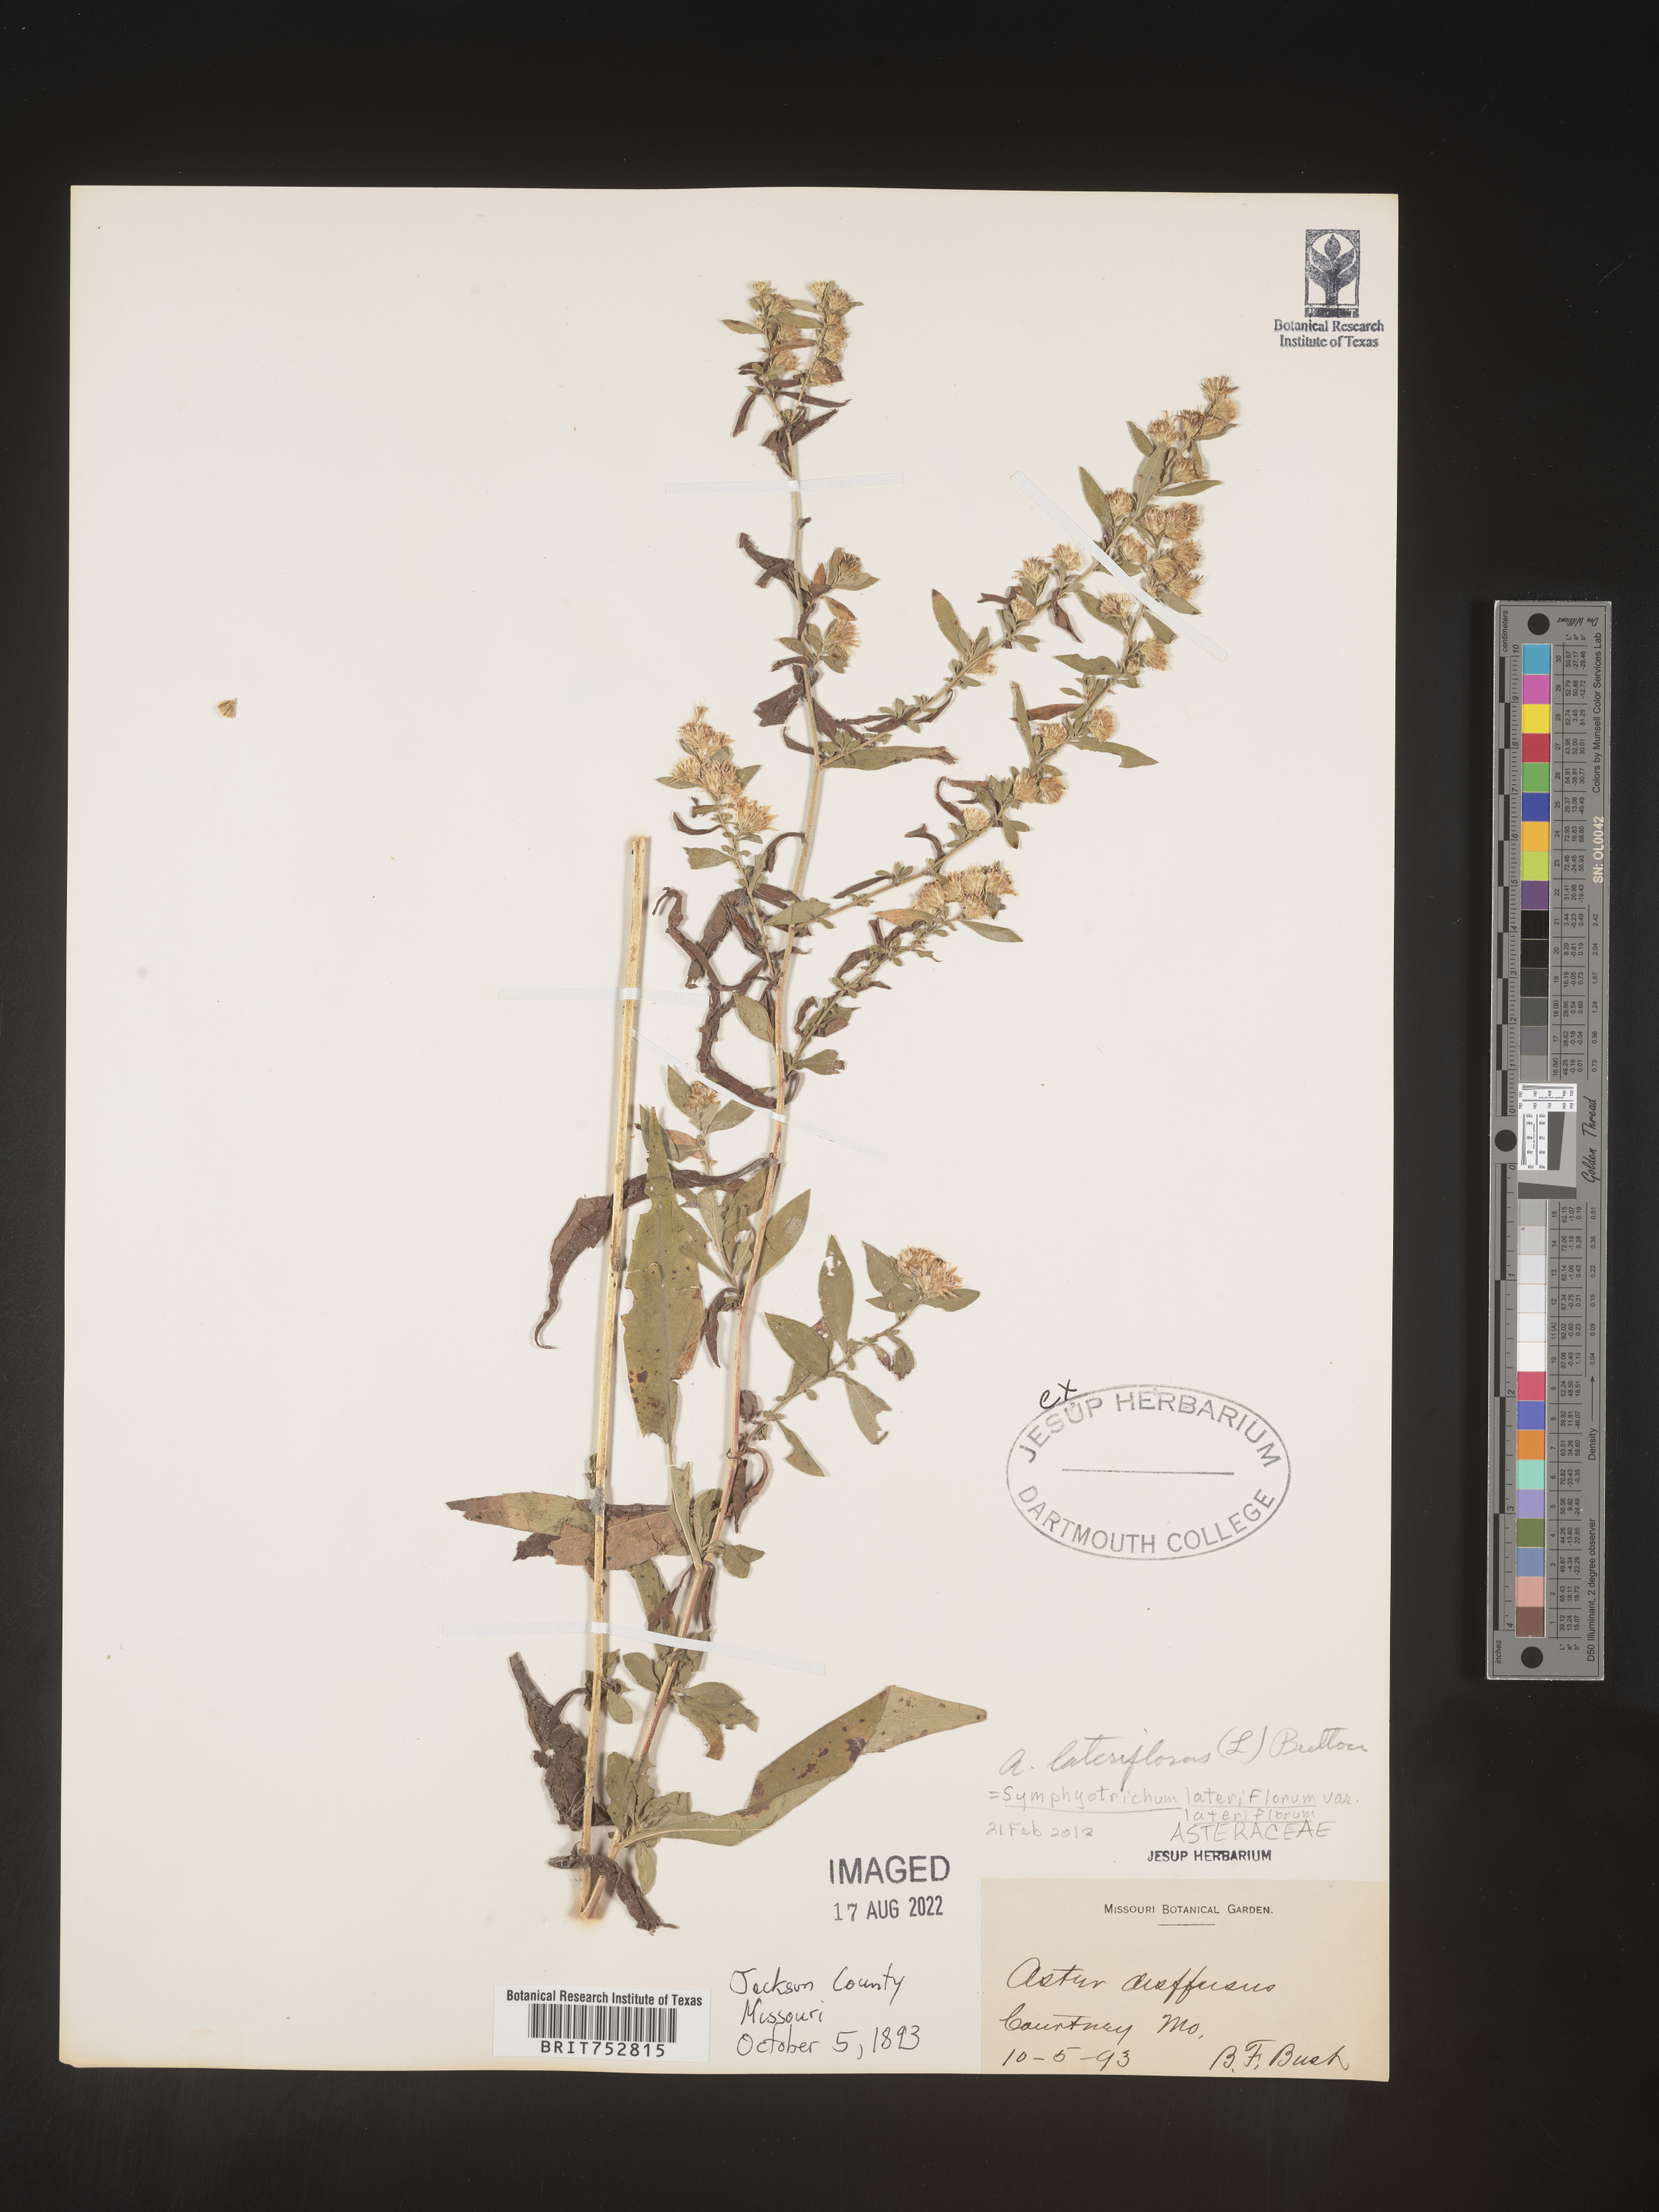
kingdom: Plantae
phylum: Tracheophyta
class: Magnoliopsida
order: Asterales
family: Asteraceae
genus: Symphyotrichum
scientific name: Symphyotrichum lateriflorum
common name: Calico aster
